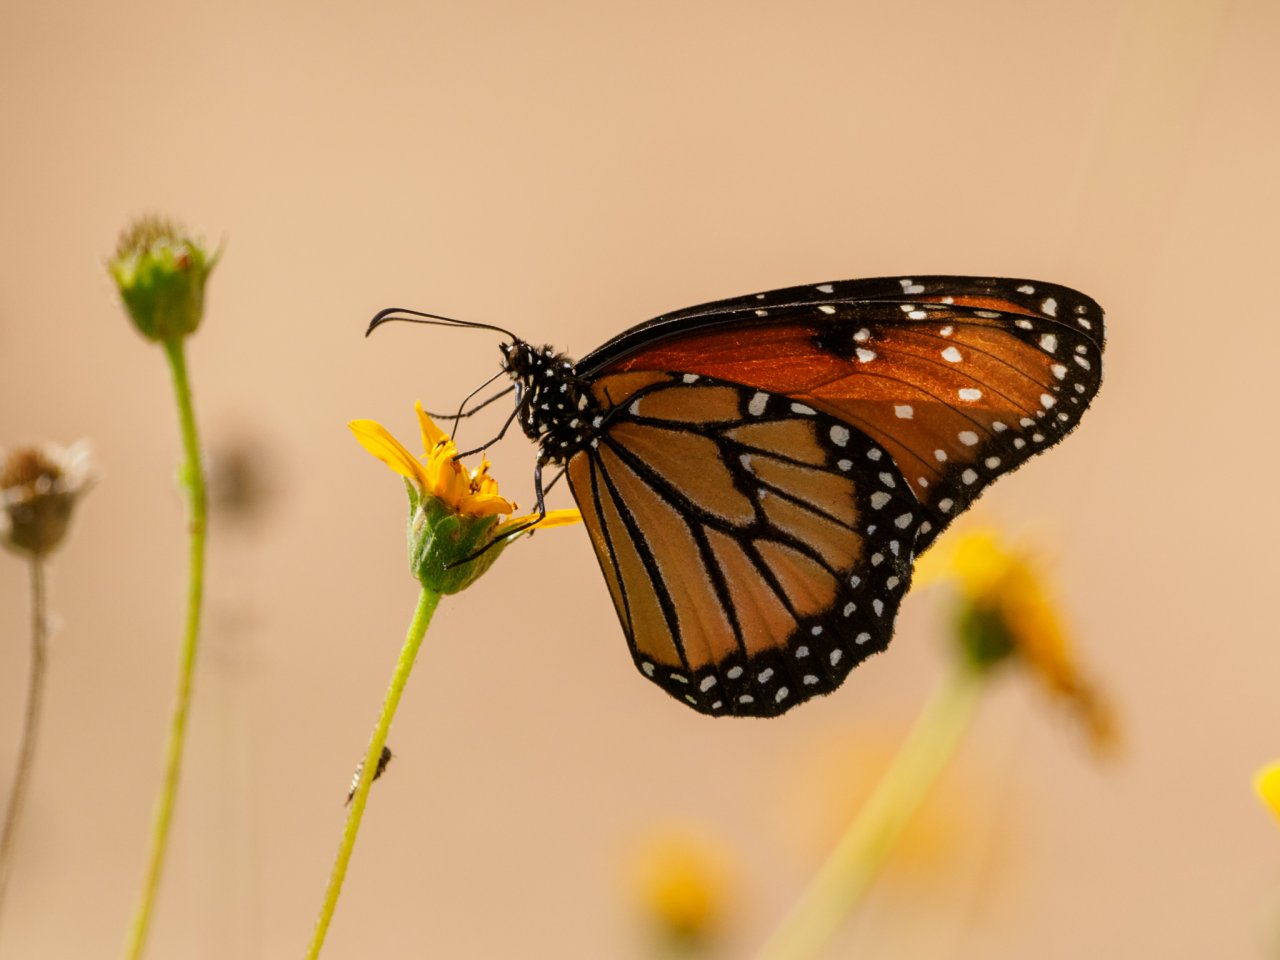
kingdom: Animalia
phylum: Arthropoda
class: Insecta
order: Lepidoptera
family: Nymphalidae
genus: Danaus
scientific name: Danaus gilippus
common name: Queen
